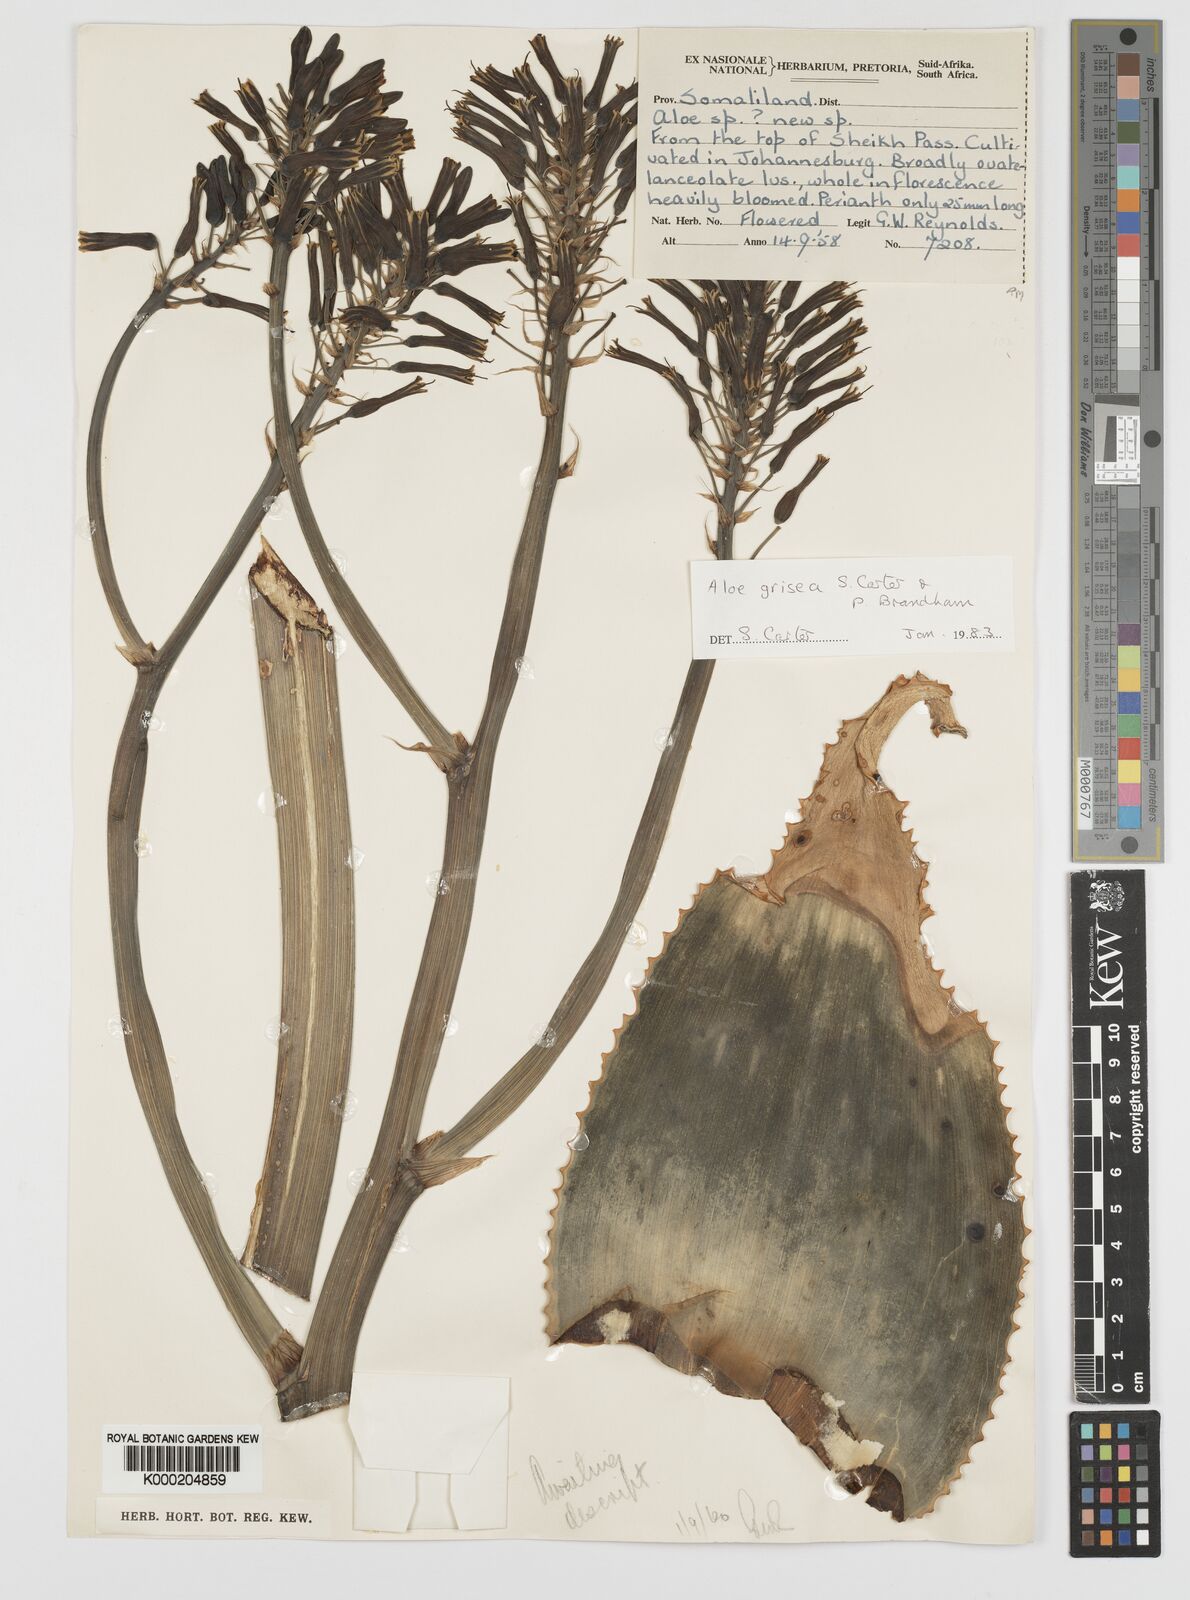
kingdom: Plantae
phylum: Tracheophyta
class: Liliopsida
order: Asparagales
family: Asphodelaceae
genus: Aloe
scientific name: Aloe grisea
